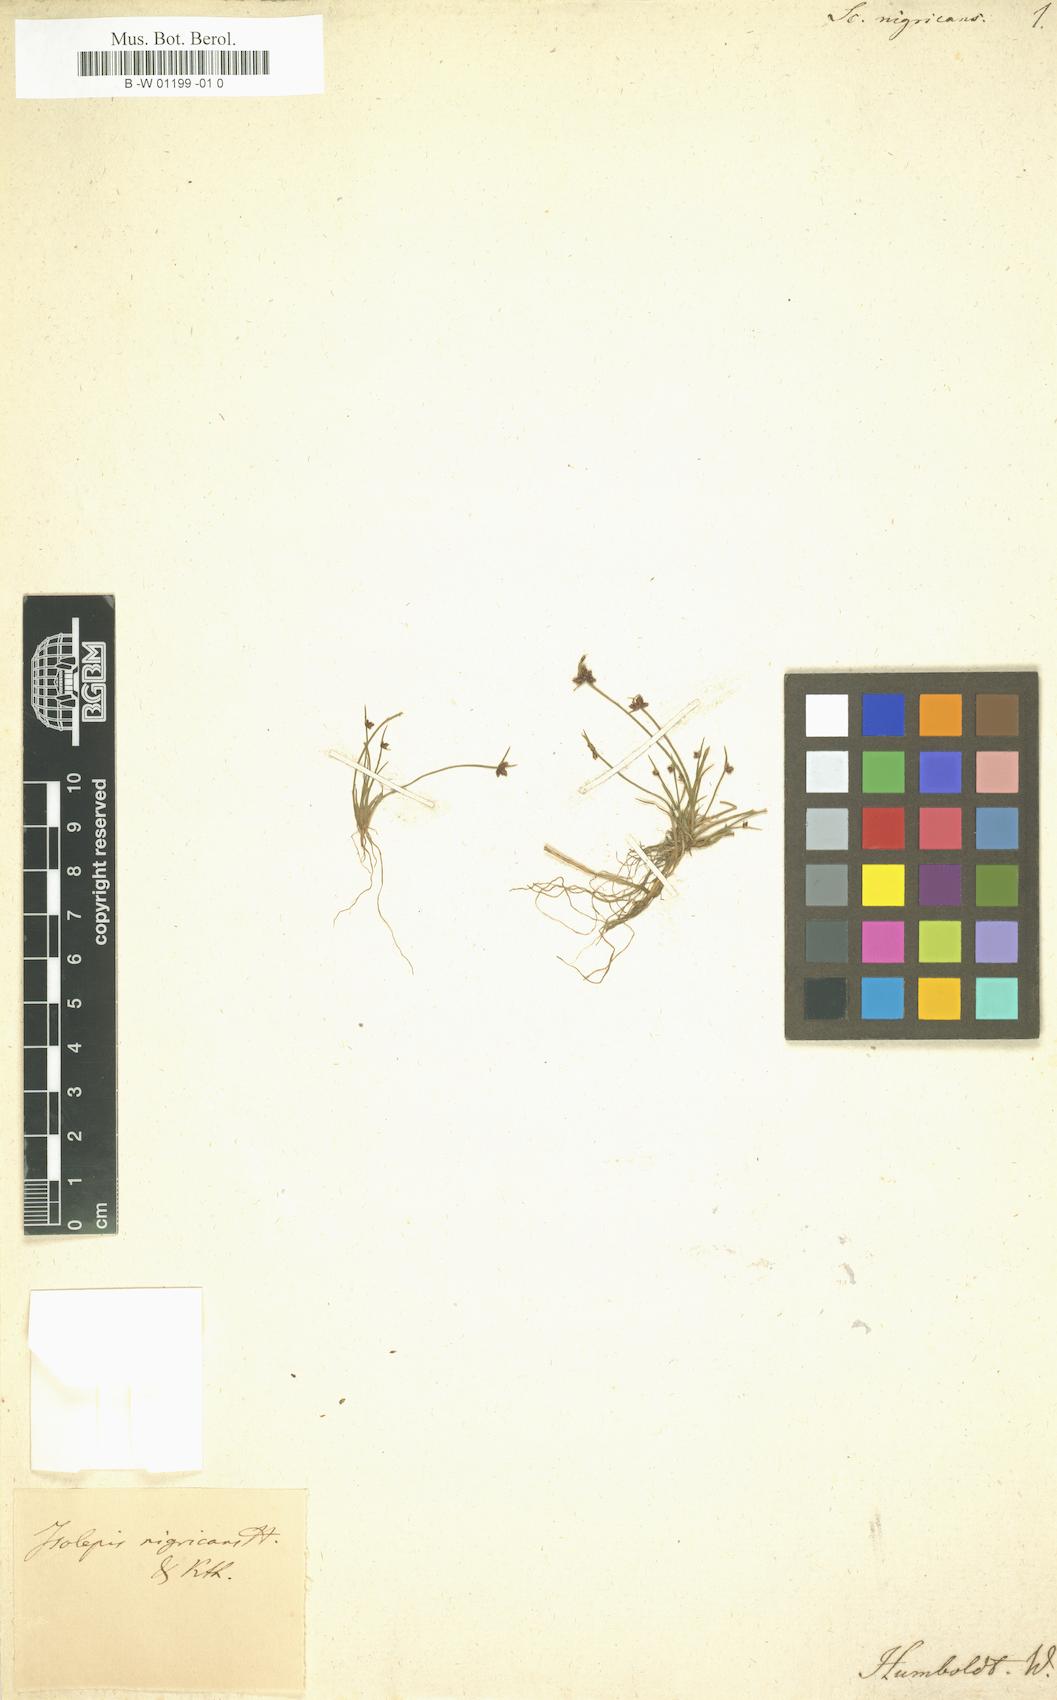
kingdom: Plantae
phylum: Tracheophyta
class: Liliopsida
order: Poales
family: Cyperaceae
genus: Isolepis
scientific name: Isolepis nigricans
